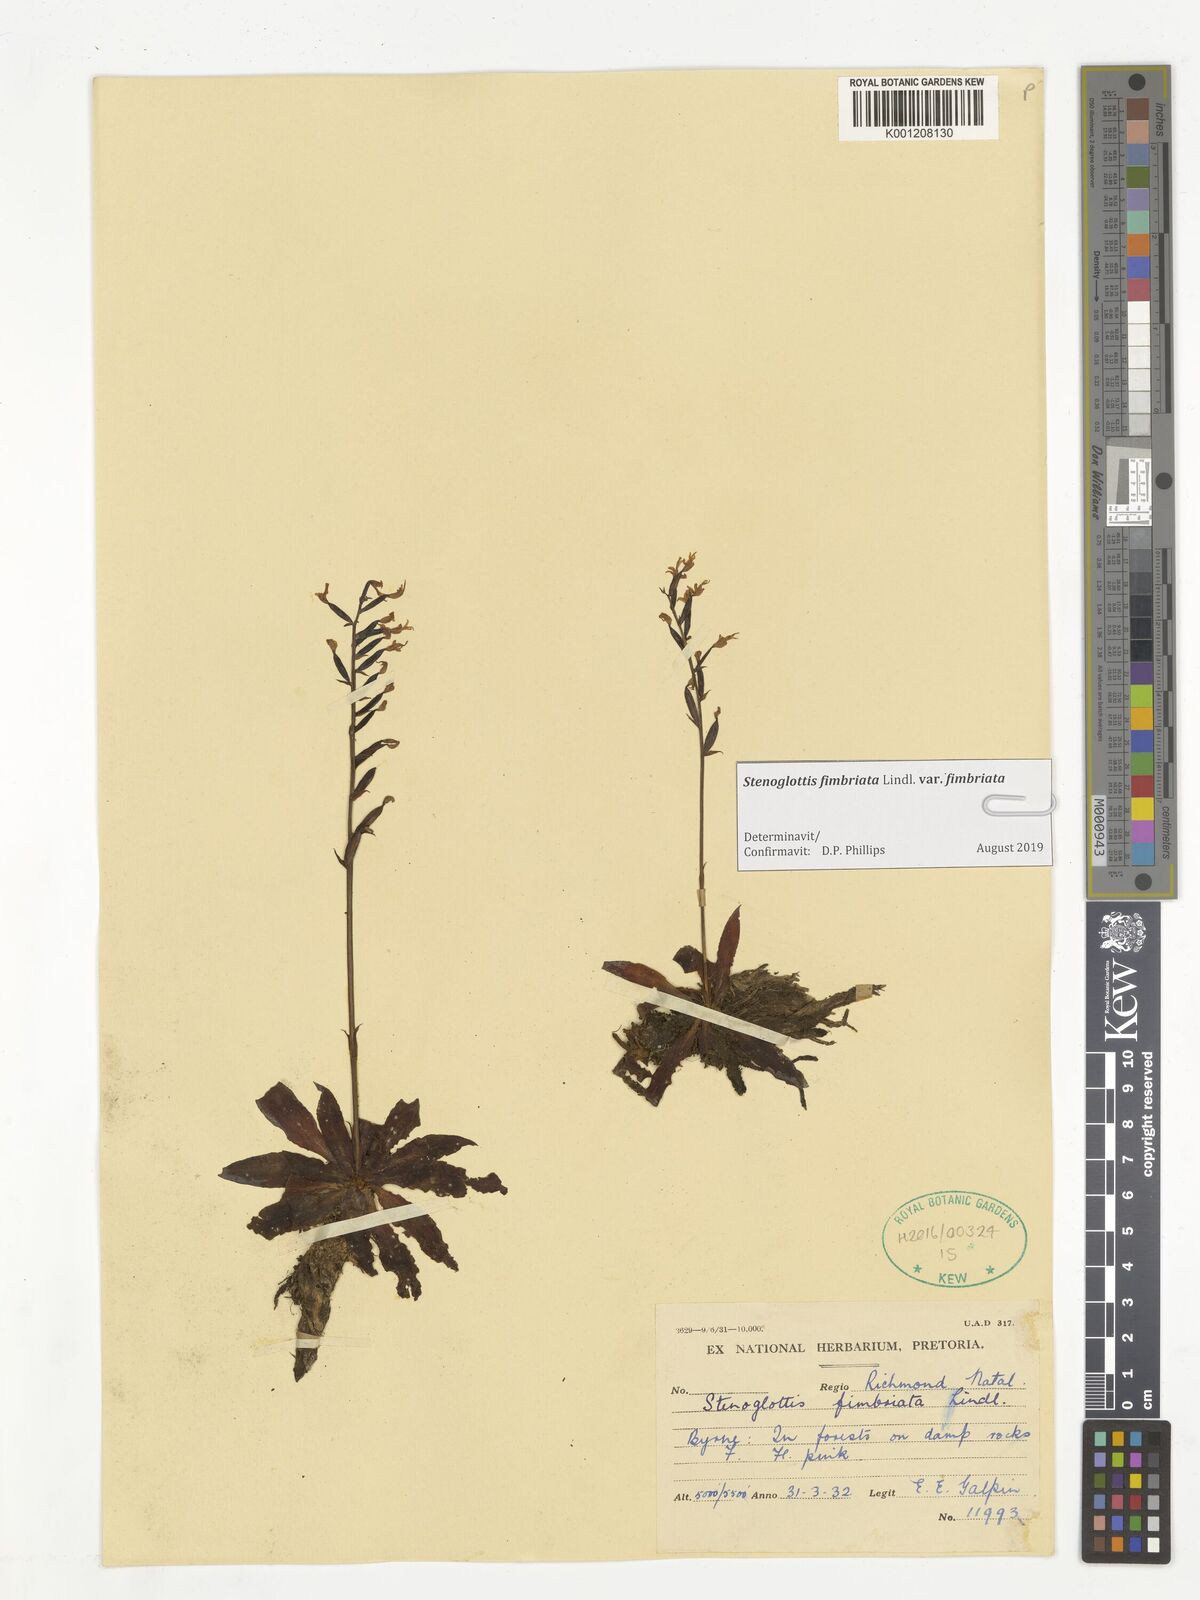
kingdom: Plantae
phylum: Tracheophyta
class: Liliopsida
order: Asparagales
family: Orchidaceae
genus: Stenoglottis
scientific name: Stenoglottis fimbriata
